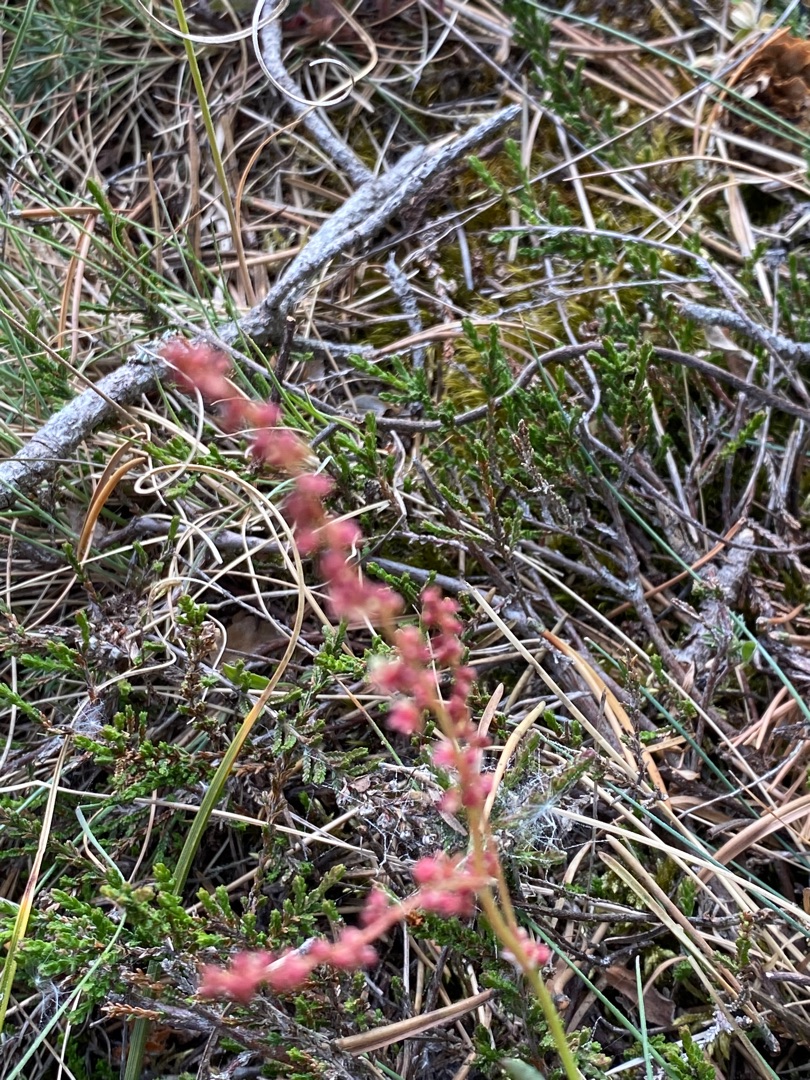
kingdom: Plantae
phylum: Tracheophyta
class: Magnoliopsida
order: Caryophyllales
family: Polygonaceae
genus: Rumex
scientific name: Rumex acetosella
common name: Rødknæ
